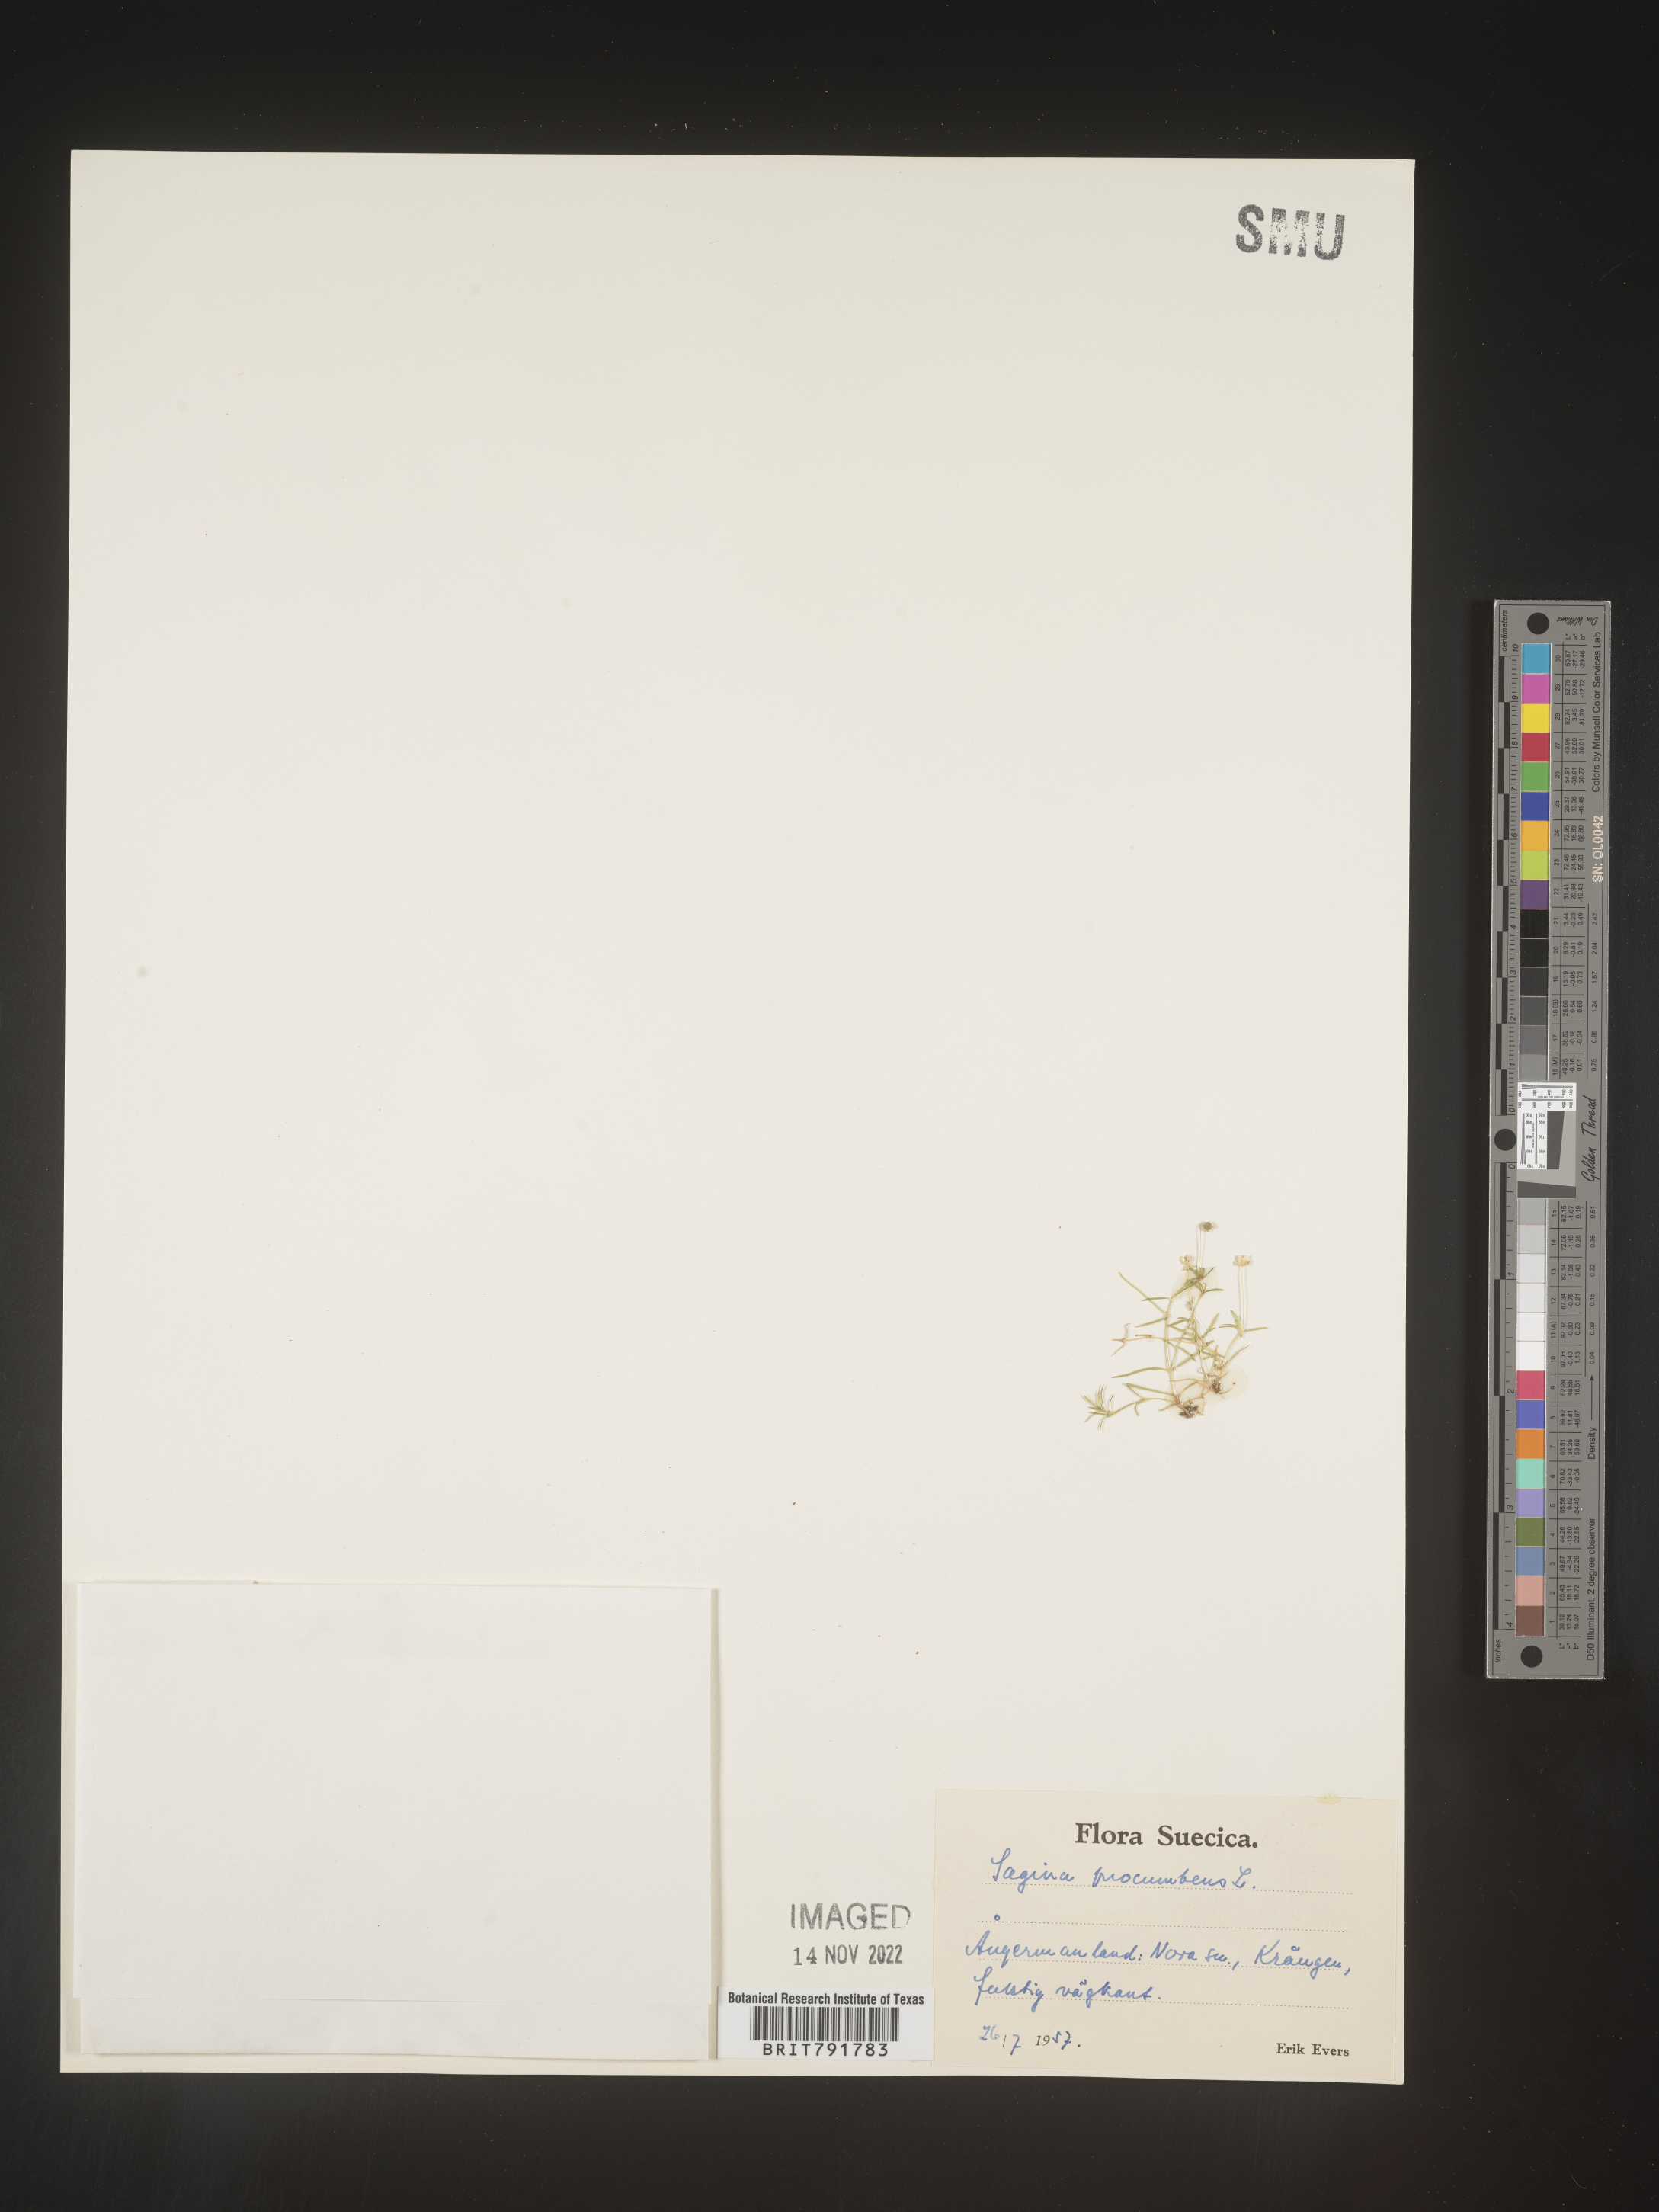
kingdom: Plantae
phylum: Tracheophyta
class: Magnoliopsida
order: Caryophyllales
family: Caryophyllaceae
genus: Sagina
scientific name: Sagina
